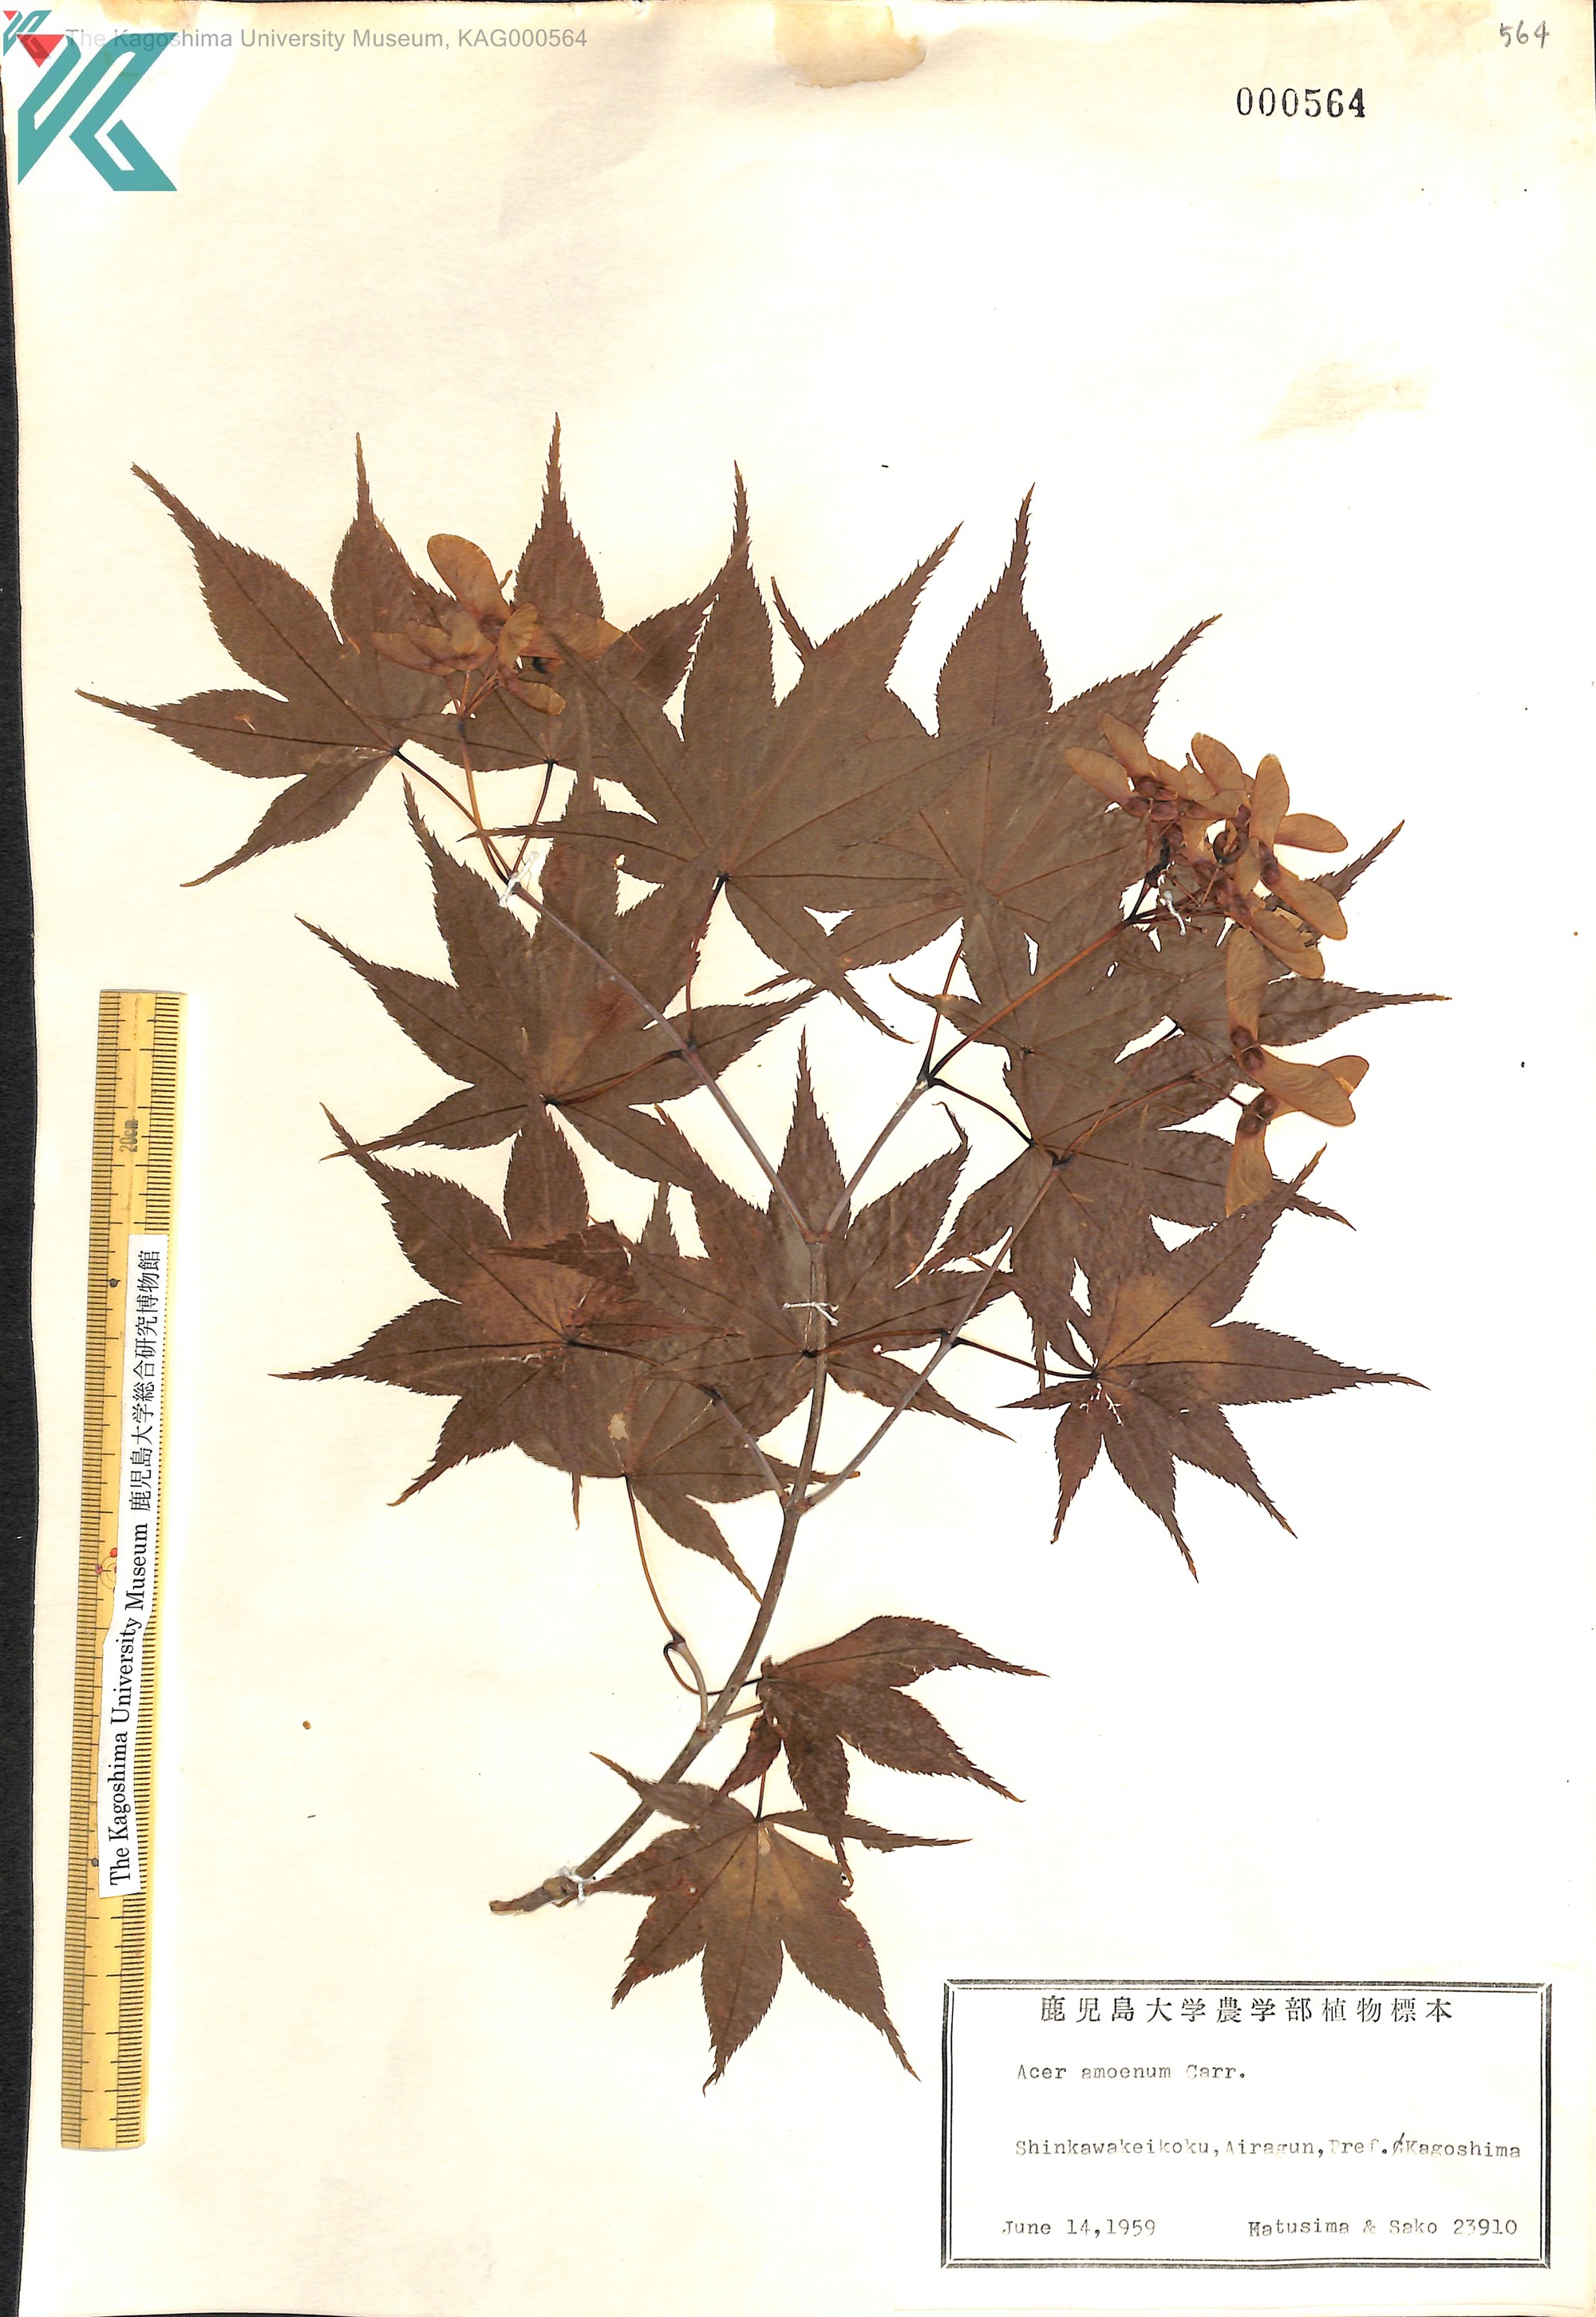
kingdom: Plantae
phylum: Tracheophyta
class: Magnoliopsida
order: Sapindales
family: Sapindaceae
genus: Acer
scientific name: Acer palmatum
